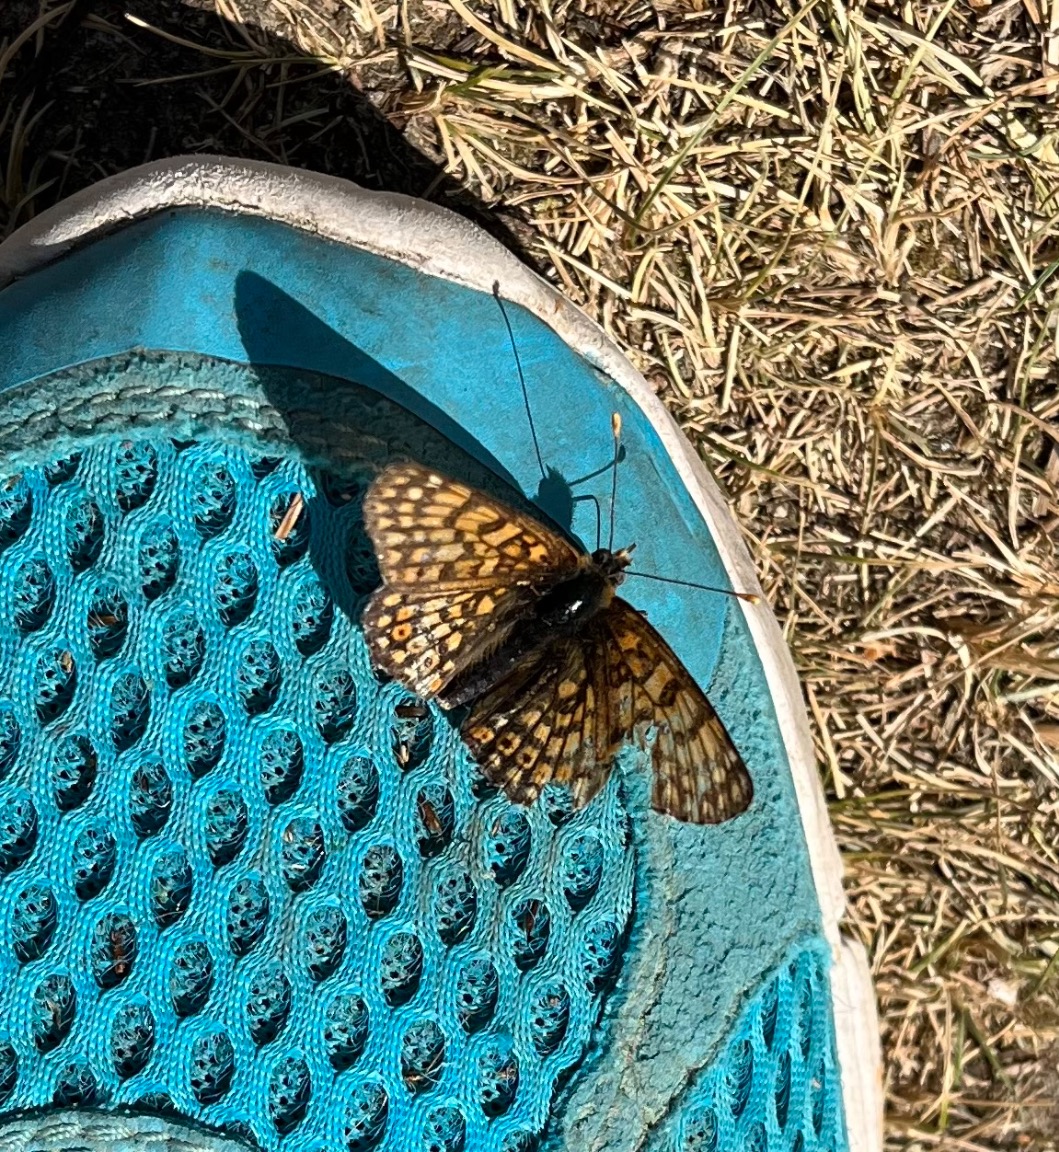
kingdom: Animalia
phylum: Arthropoda
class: Insecta
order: Lepidoptera
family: Nymphalidae
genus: Melitaea
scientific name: Melitaea cinxia
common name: Okkergul pletvinge
